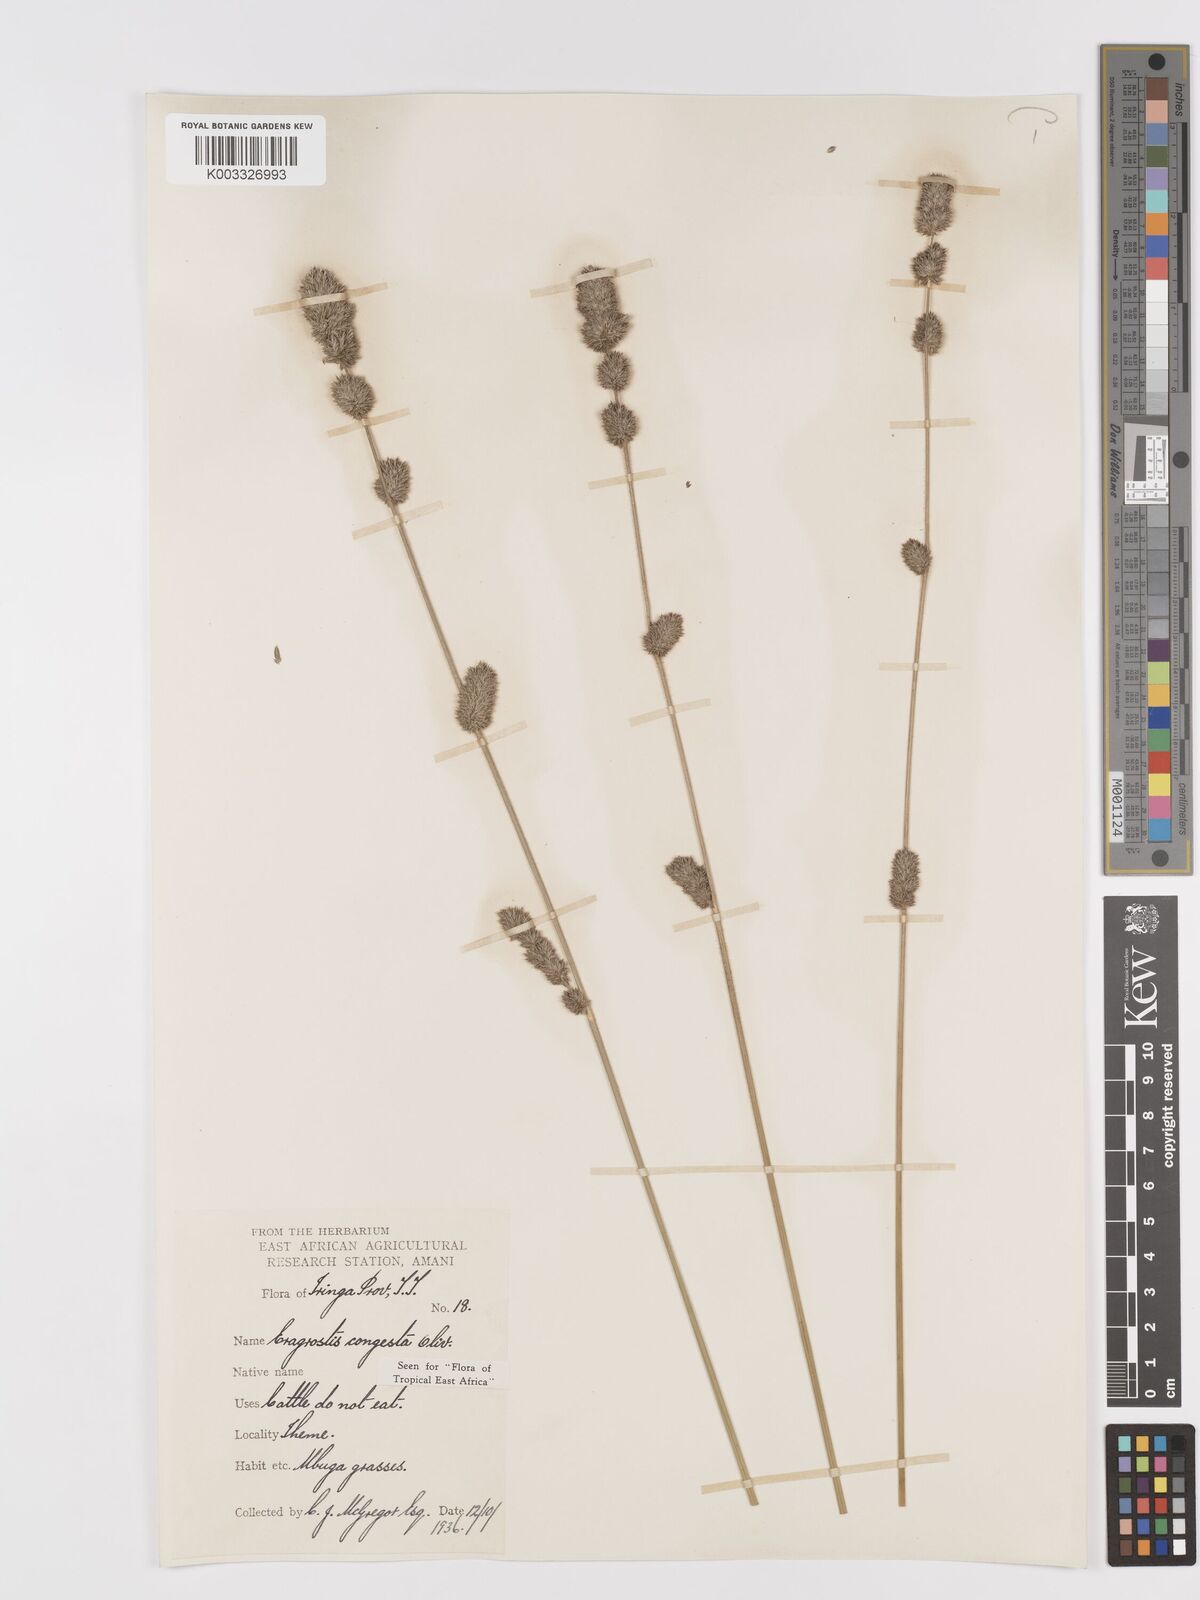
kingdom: Plantae
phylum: Tracheophyta
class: Liliopsida
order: Poales
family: Poaceae
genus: Eragrostis
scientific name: Eragrostis congesta
